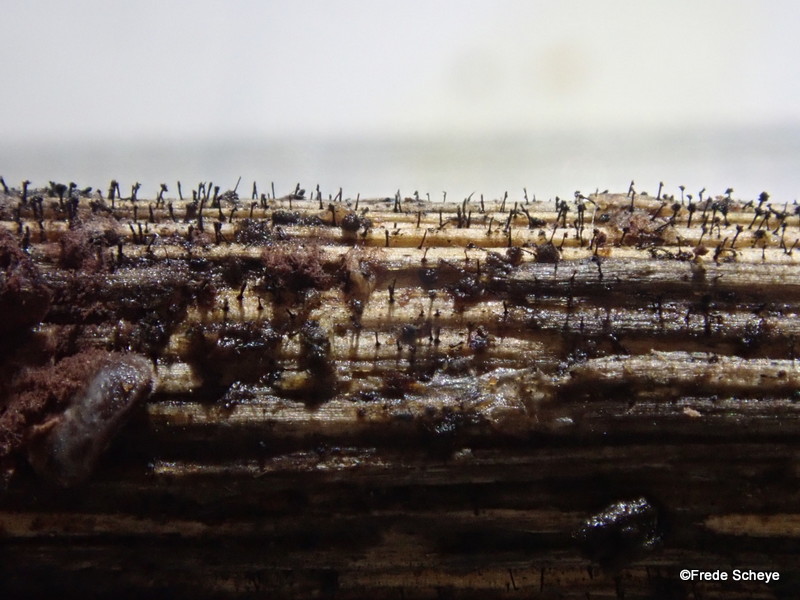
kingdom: Fungi
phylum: Ascomycota
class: Dothideomycetes
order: Pleosporales
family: Melanommataceae
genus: Phragmocephala
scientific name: Phragmocephala atra
